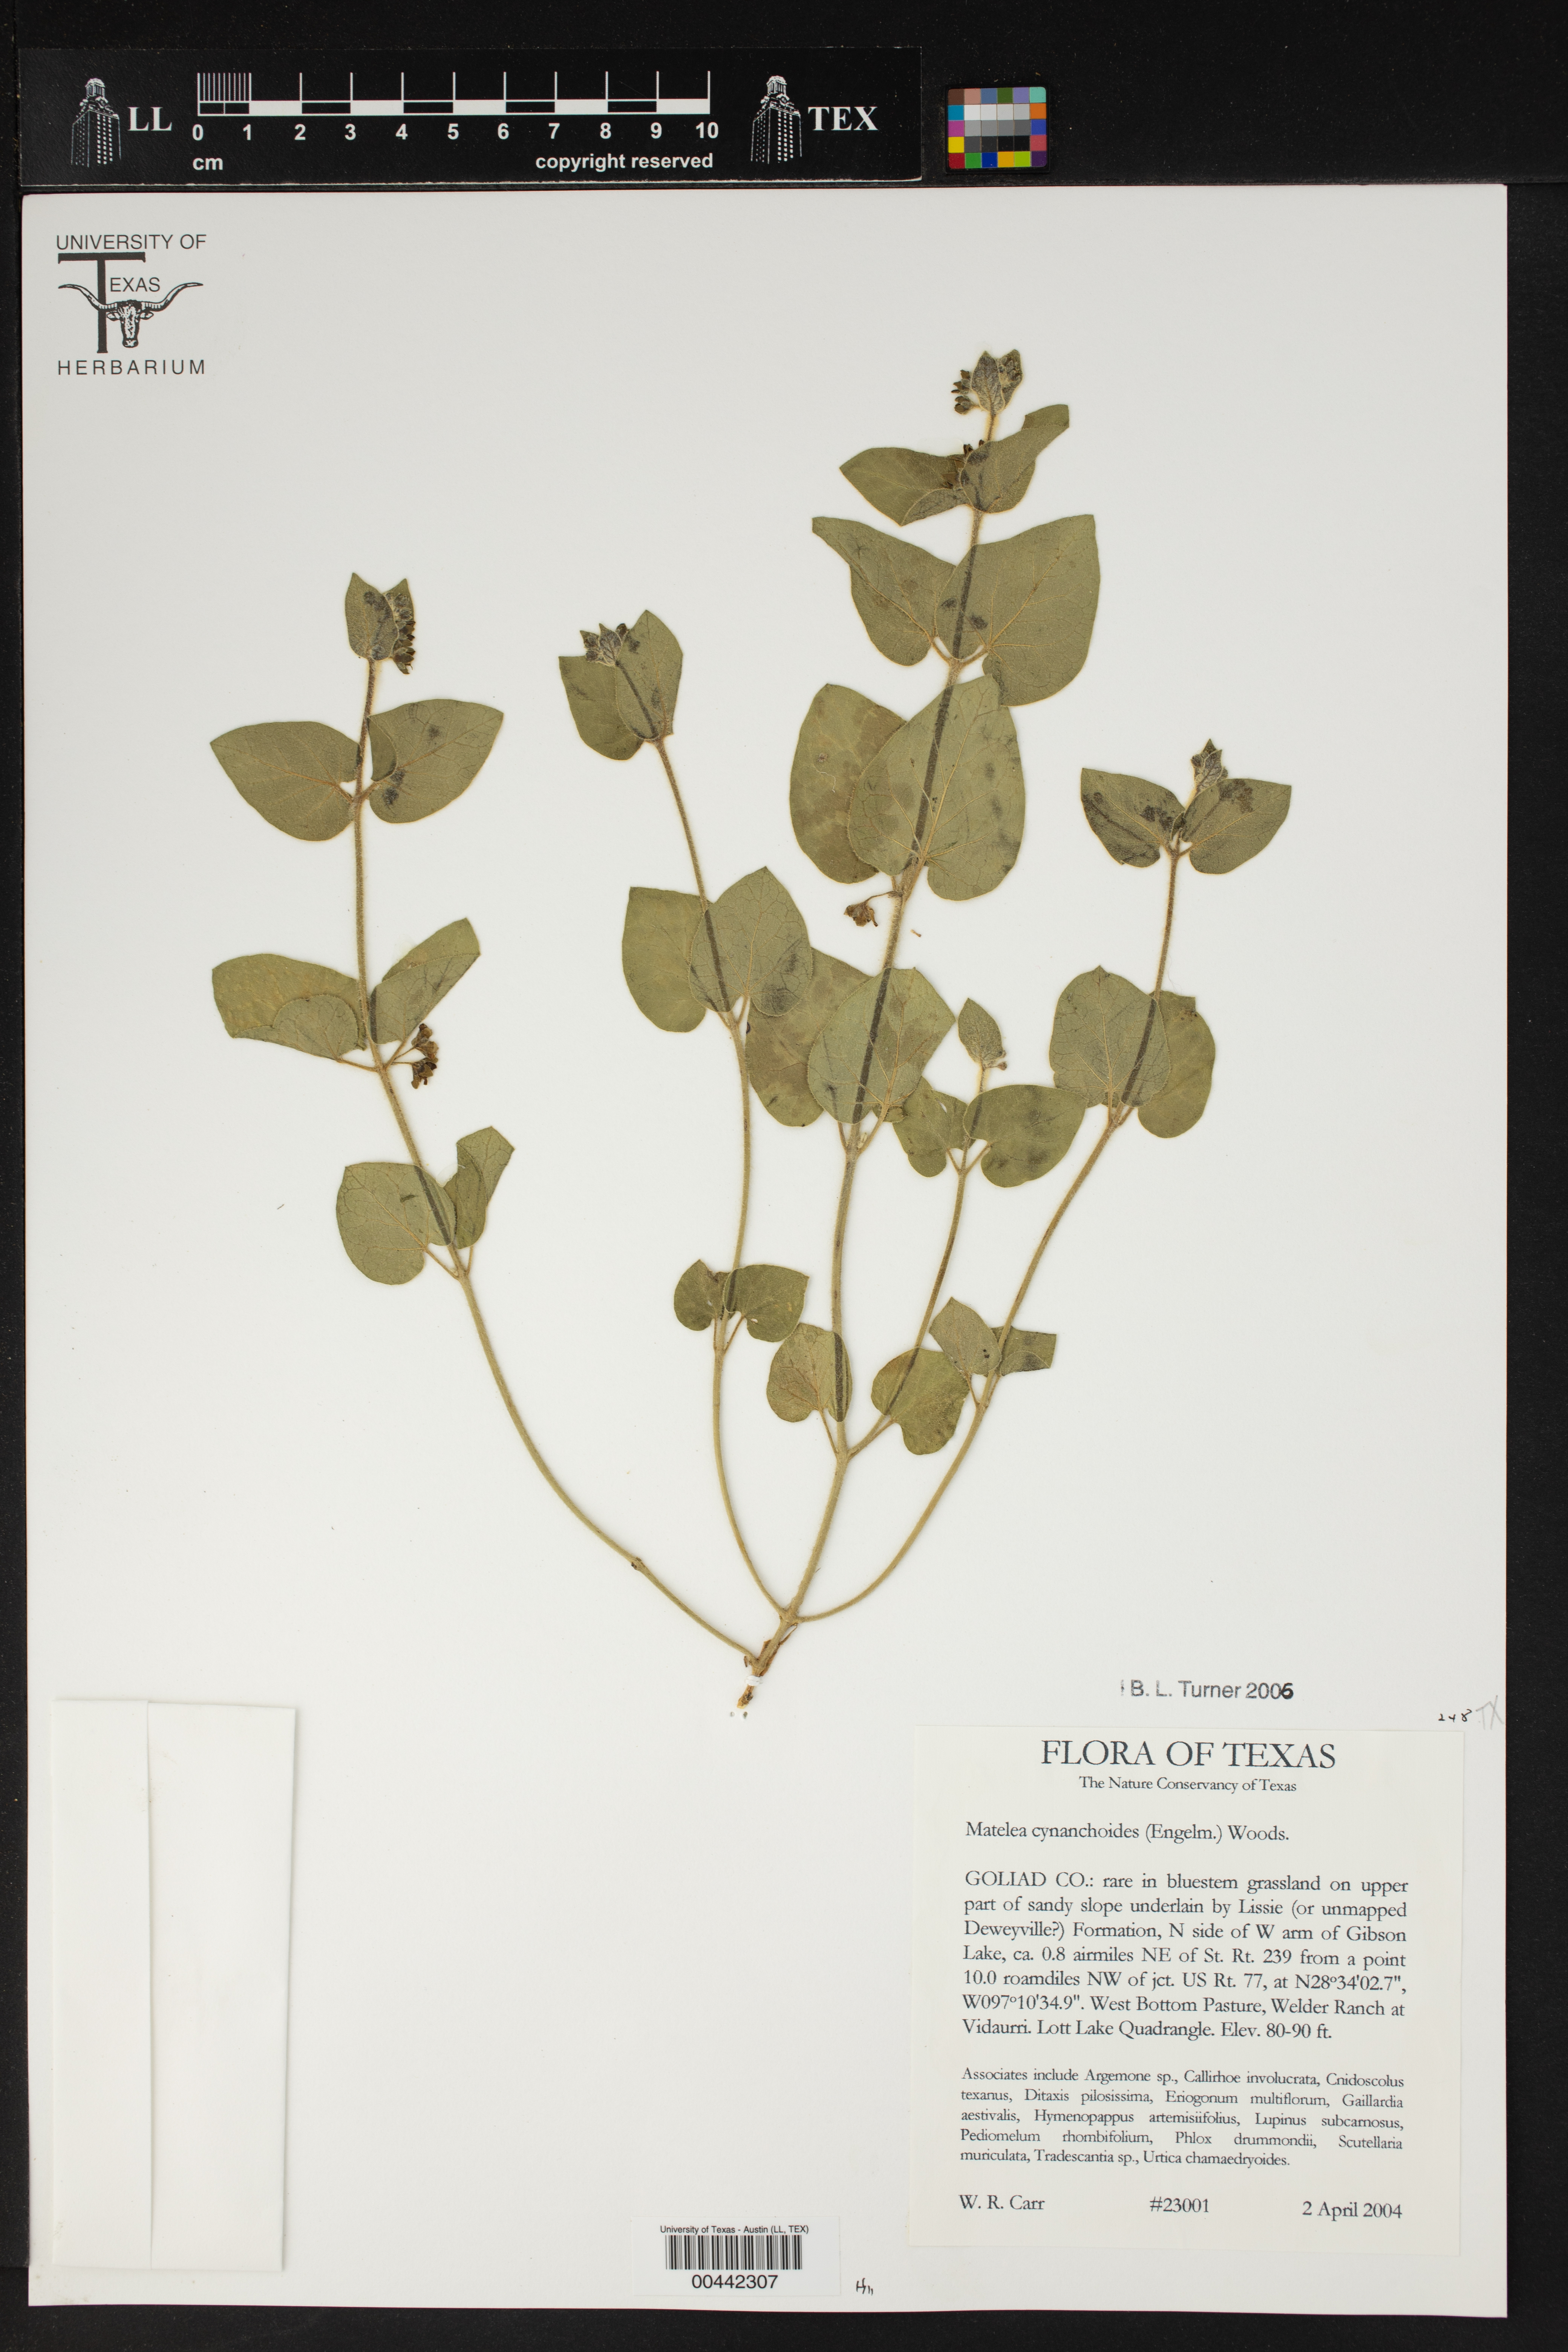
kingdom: Plantae
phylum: Tracheophyta
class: Magnoliopsida
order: Gentianales
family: Apocynaceae
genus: Matelea
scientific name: Matelea cynanchoides
